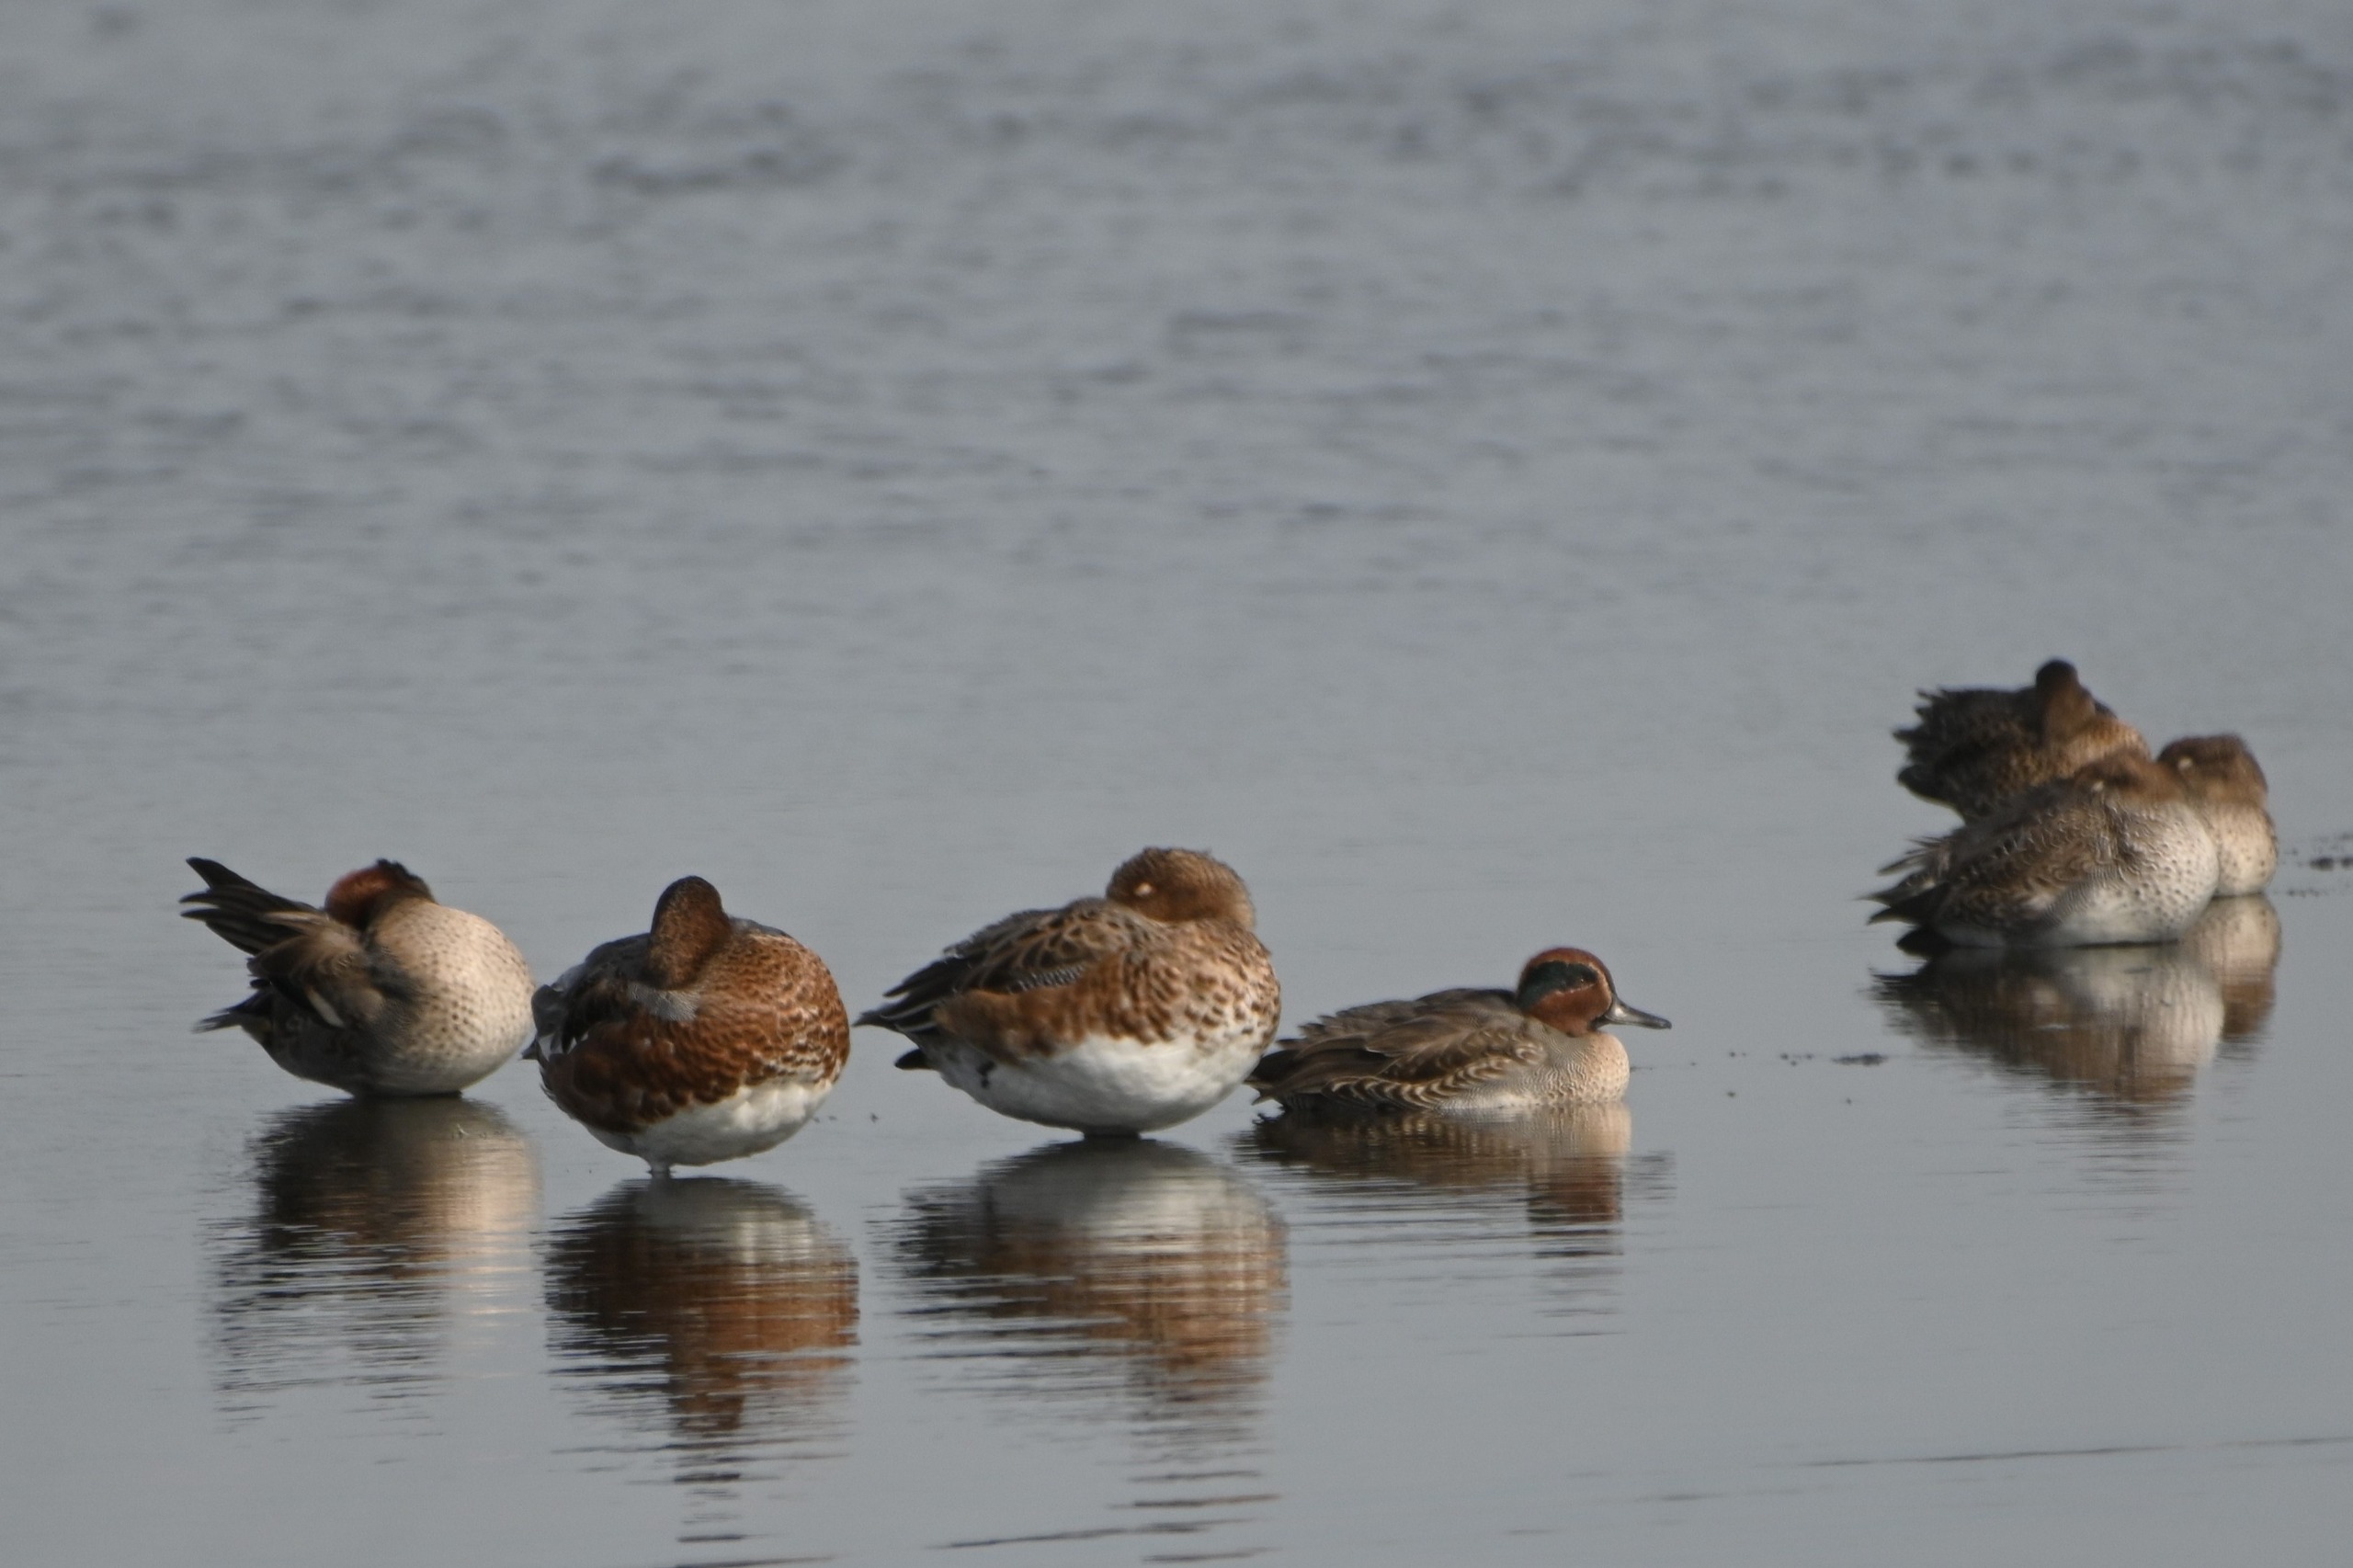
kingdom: Animalia
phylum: Chordata
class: Aves
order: Anseriformes
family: Anatidae
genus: Anas
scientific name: Anas crecca
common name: Krikand
